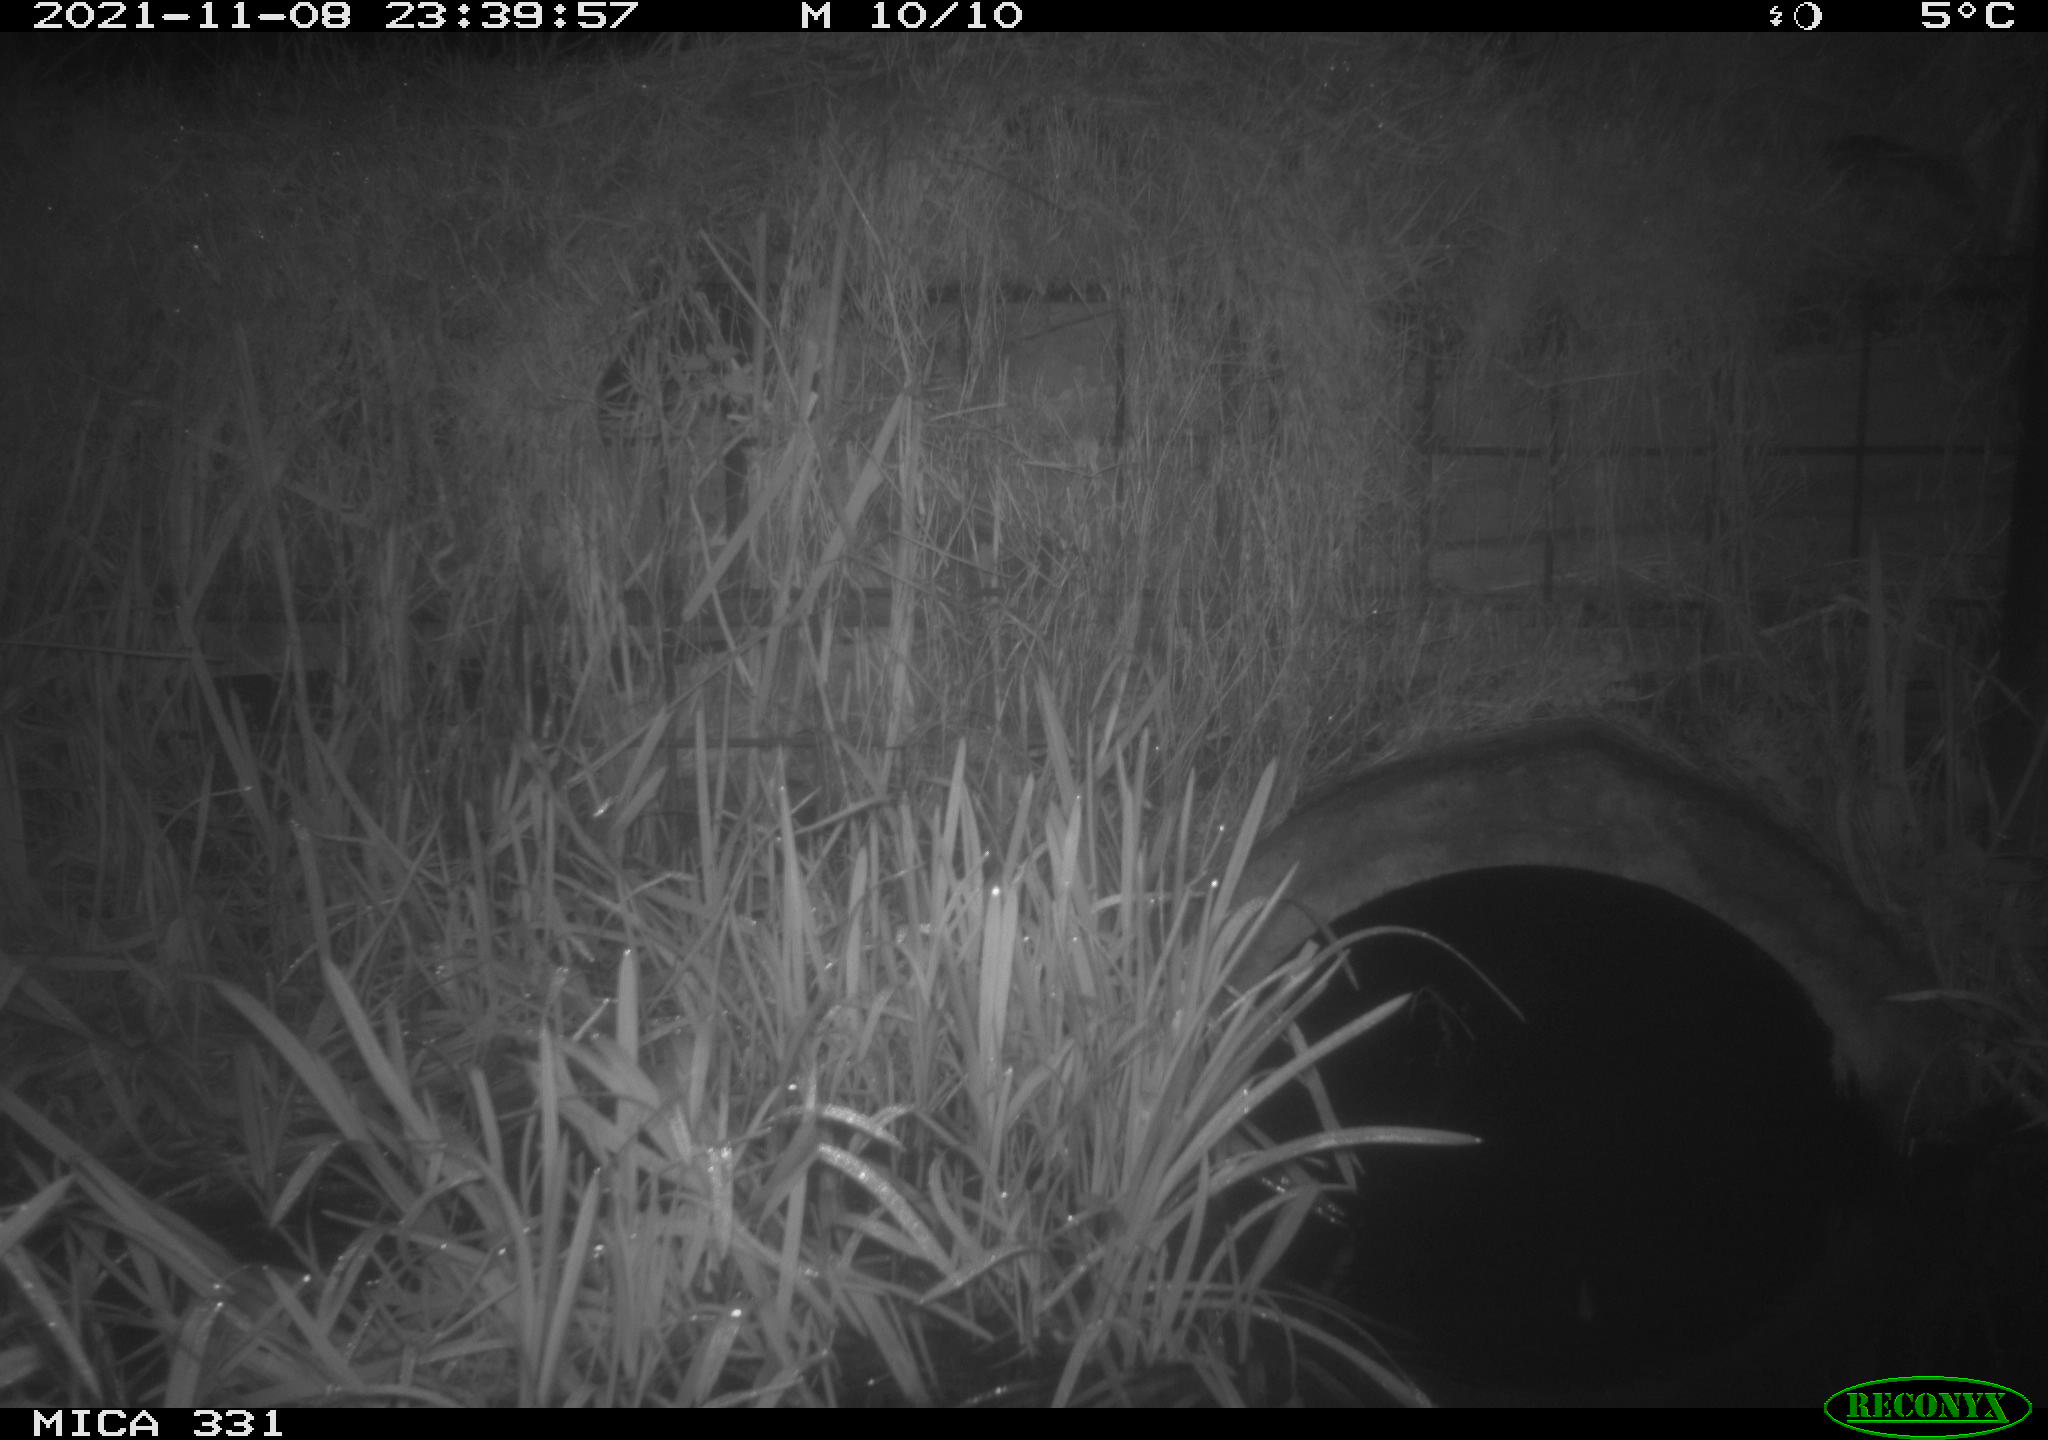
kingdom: Animalia
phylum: Chordata
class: Mammalia
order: Rodentia
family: Muridae
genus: Rattus
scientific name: Rattus norvegicus
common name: Brown rat
